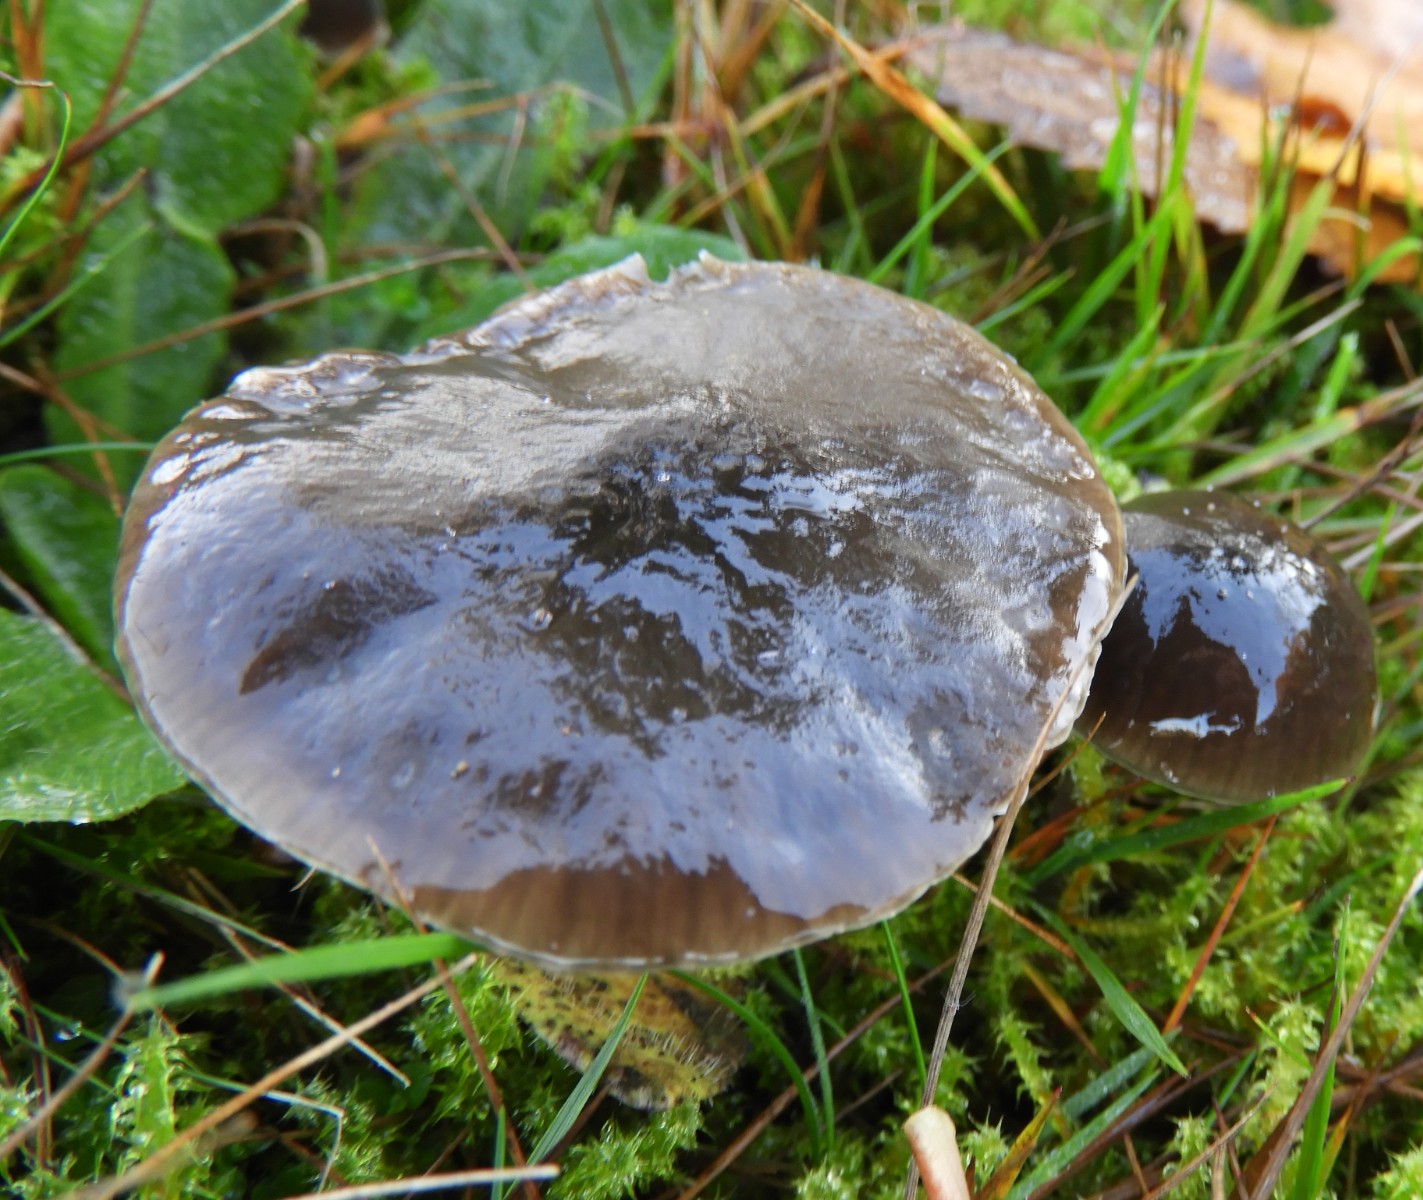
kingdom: Fungi
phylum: Basidiomycota
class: Agaricomycetes
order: Agaricales
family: Hygrophoraceae
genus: Gliophorus
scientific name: Gliophorus irrigatus
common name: slimet vokshat
